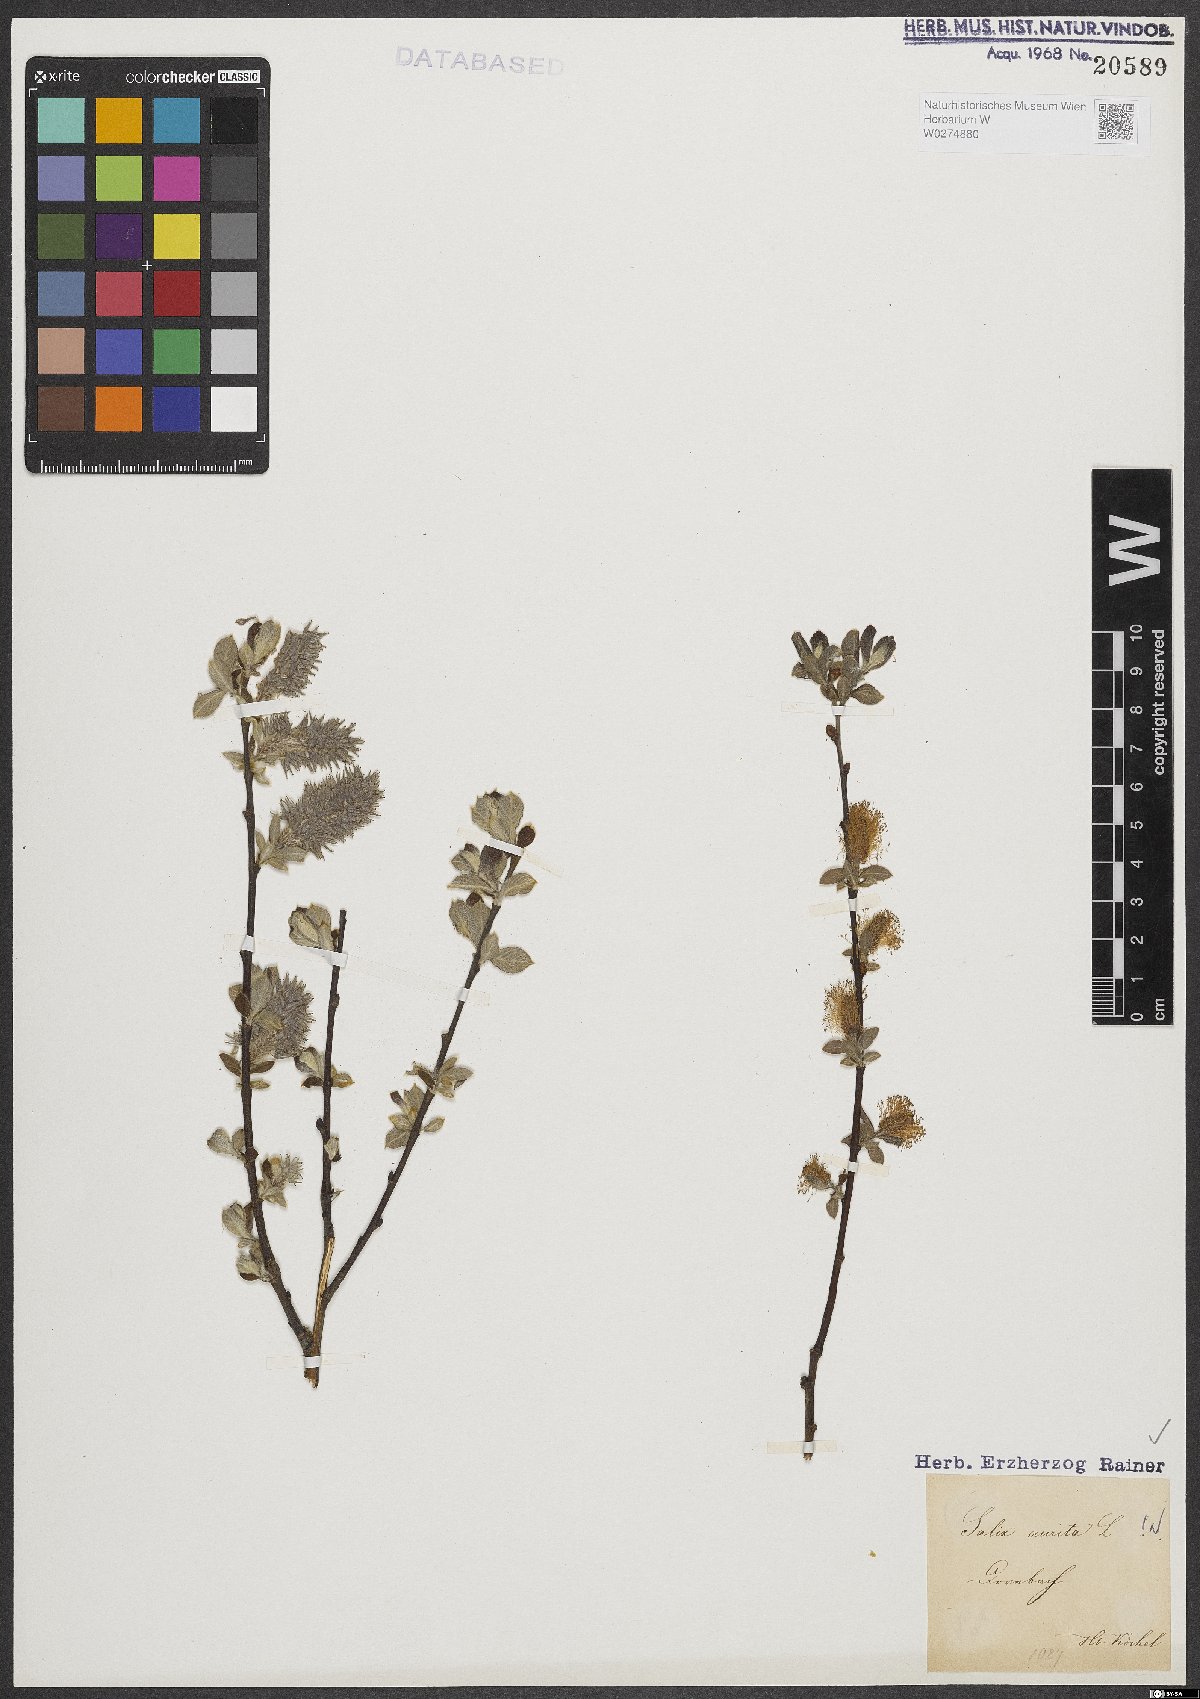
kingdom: Plantae
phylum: Tracheophyta
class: Magnoliopsida
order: Malpighiales
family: Salicaceae
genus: Salix
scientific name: Salix aurita
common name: Eared willow
